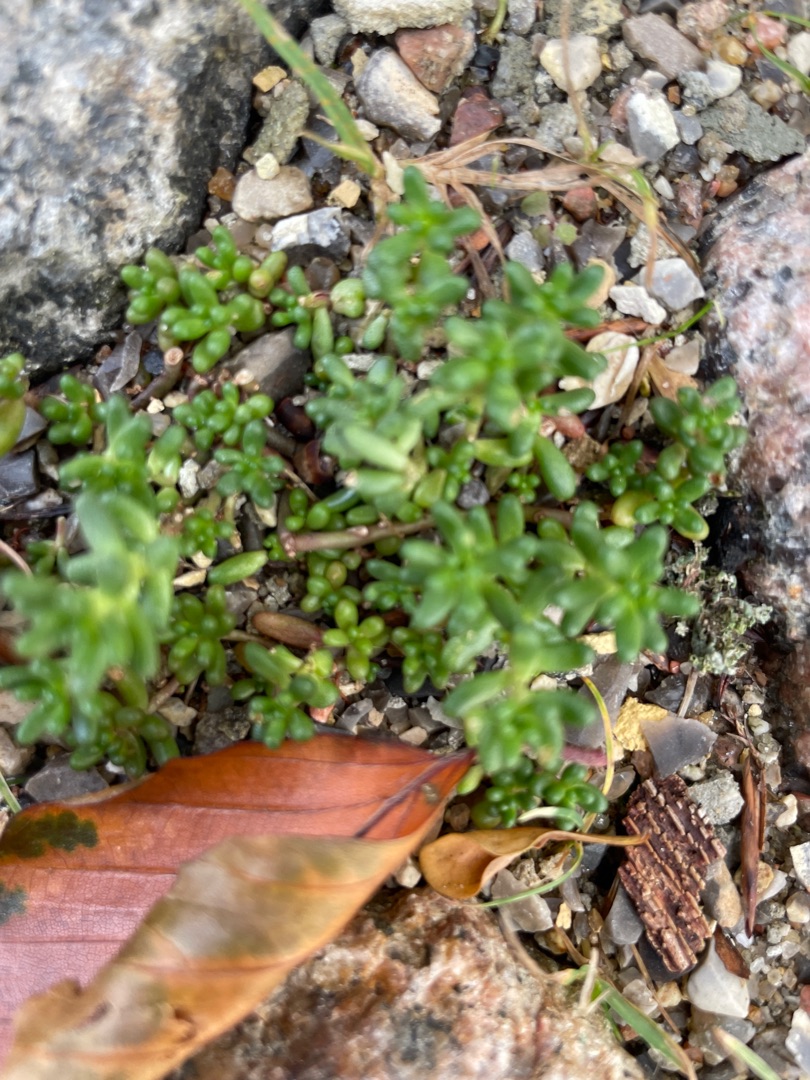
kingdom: Plantae
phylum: Tracheophyta
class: Magnoliopsida
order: Saxifragales
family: Crassulaceae
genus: Sedum
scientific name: Sedum album
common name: Hvid stenurt
